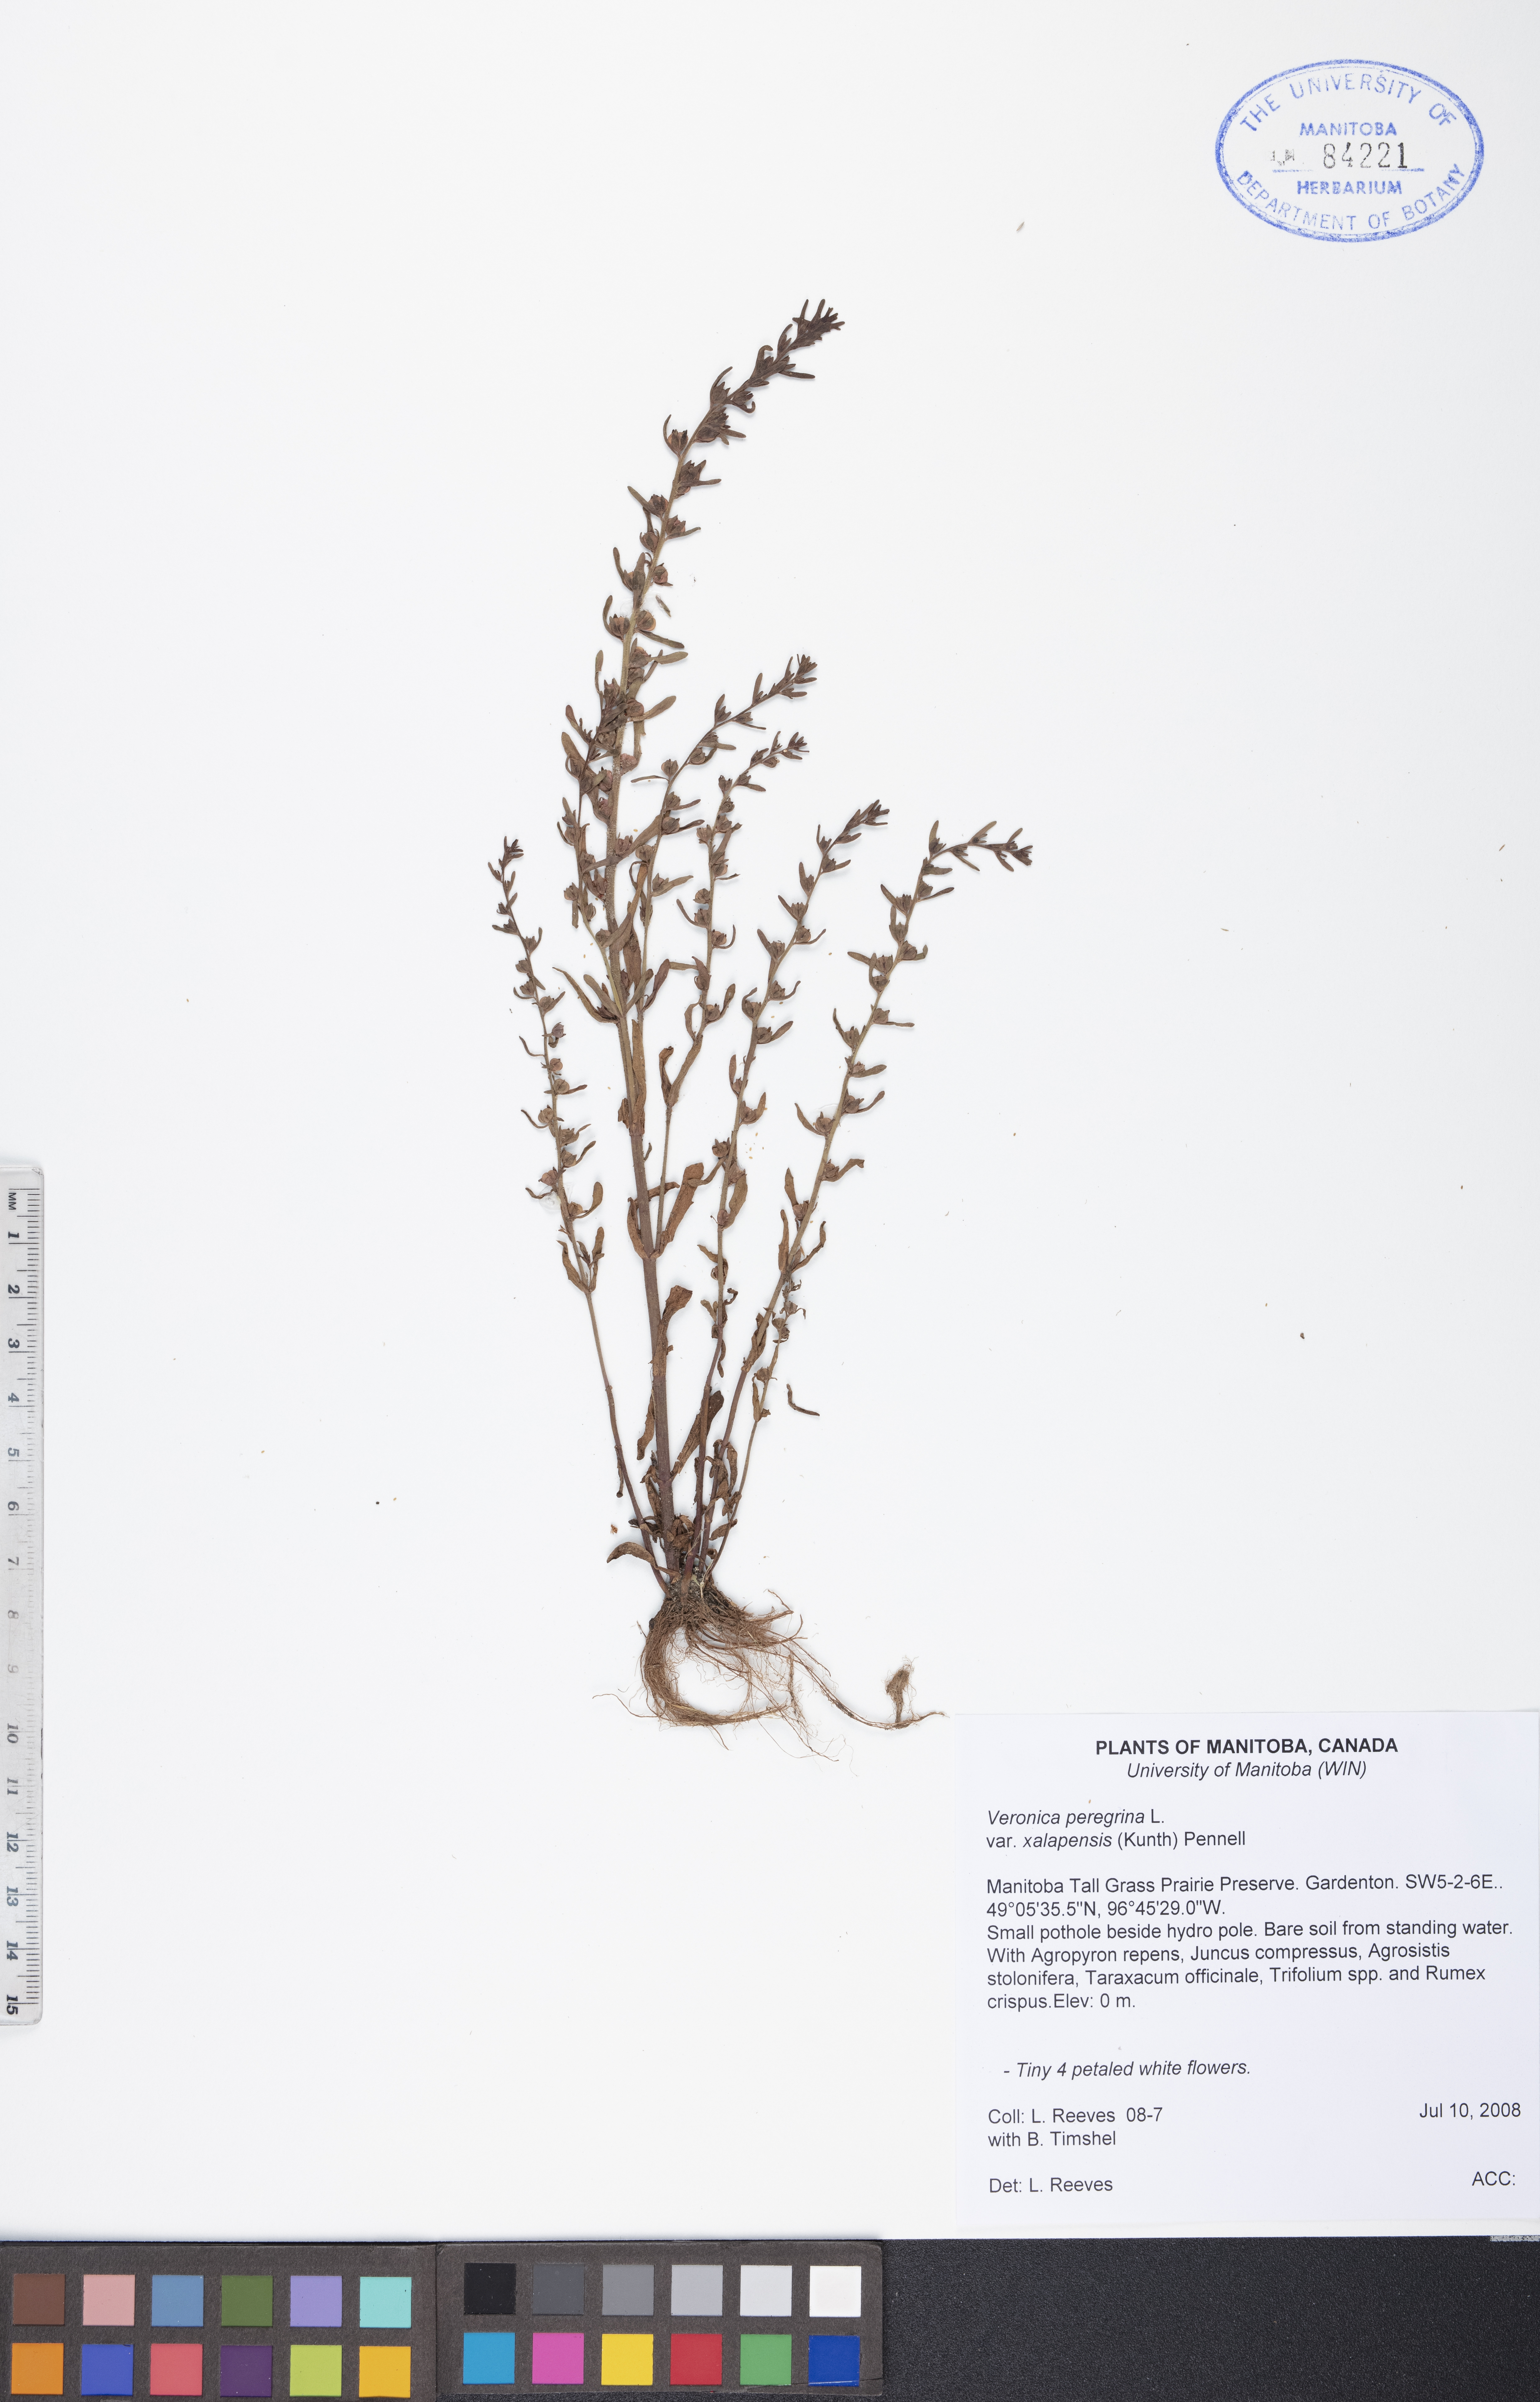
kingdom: Plantae
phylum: Tracheophyta
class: Magnoliopsida
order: Lamiales
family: Plantaginaceae
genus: Veronica
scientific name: Veronica peregrina
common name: Neckweed
